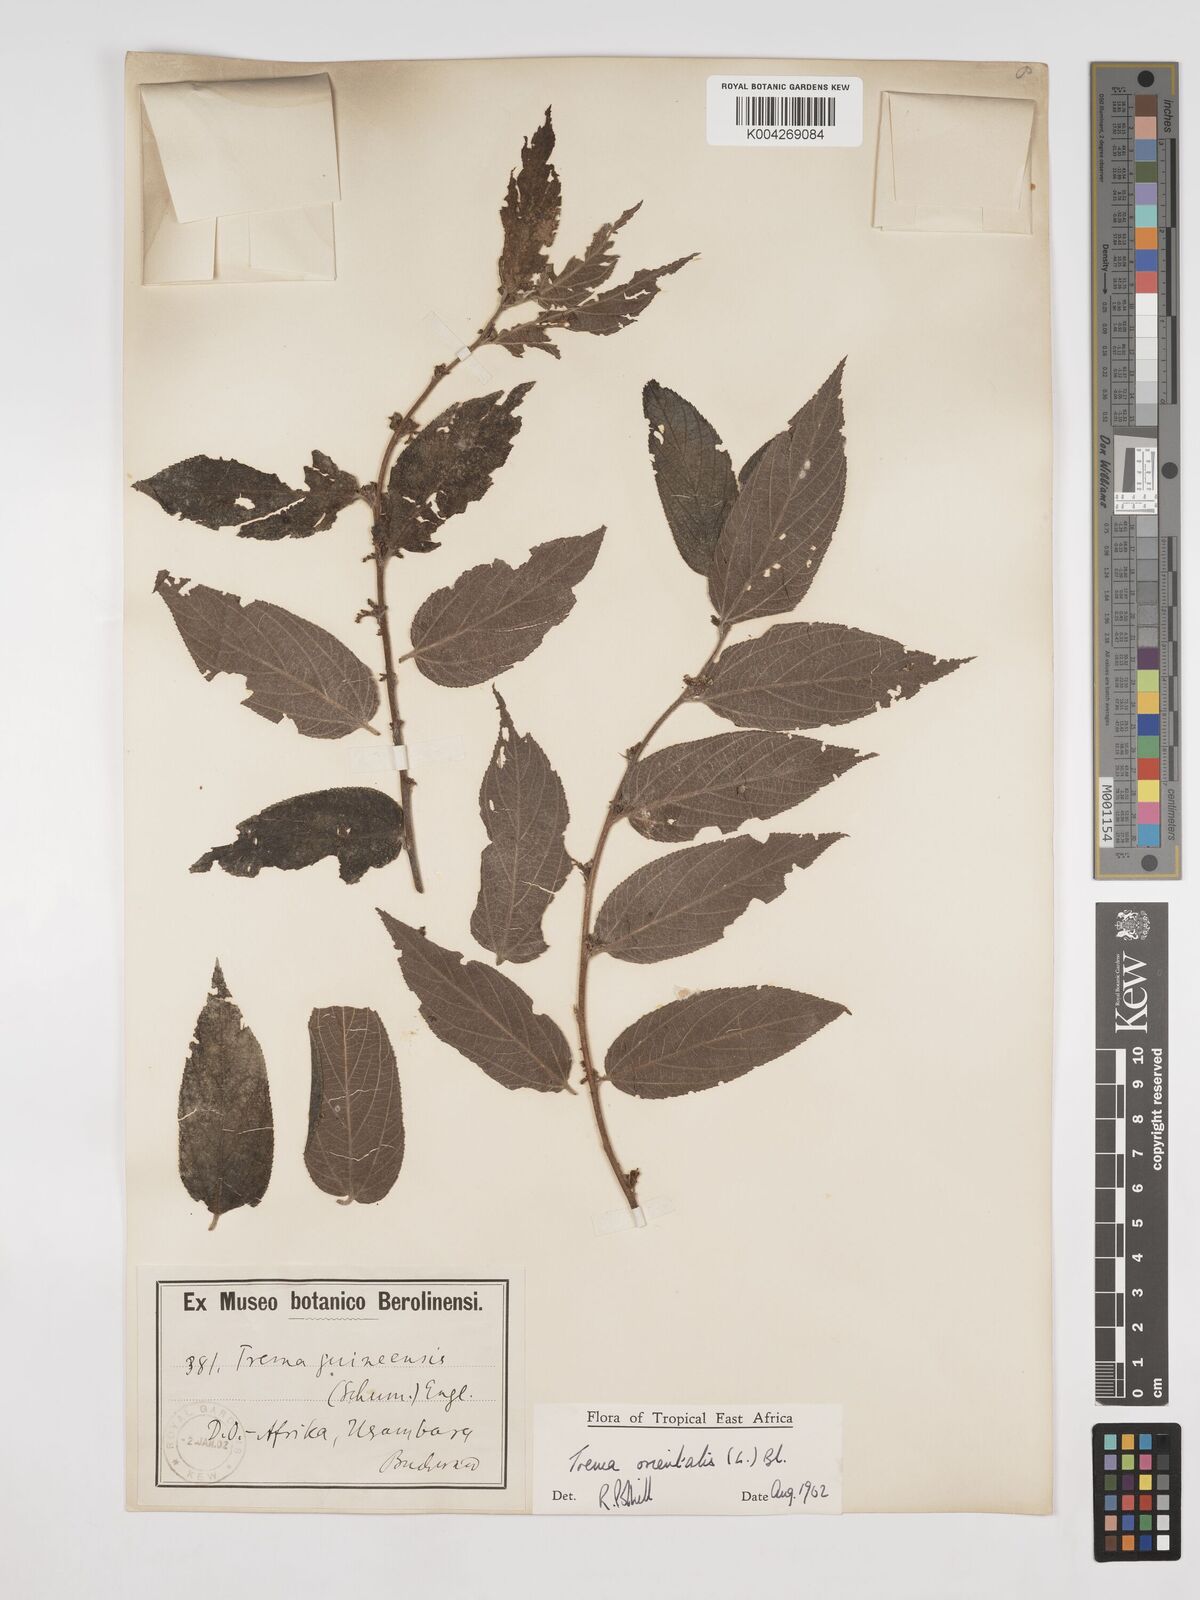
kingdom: Plantae
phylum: Tracheophyta
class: Magnoliopsida
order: Rosales
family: Cannabaceae
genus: Trema
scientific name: Trema orientale
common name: Indian charcoal tree
